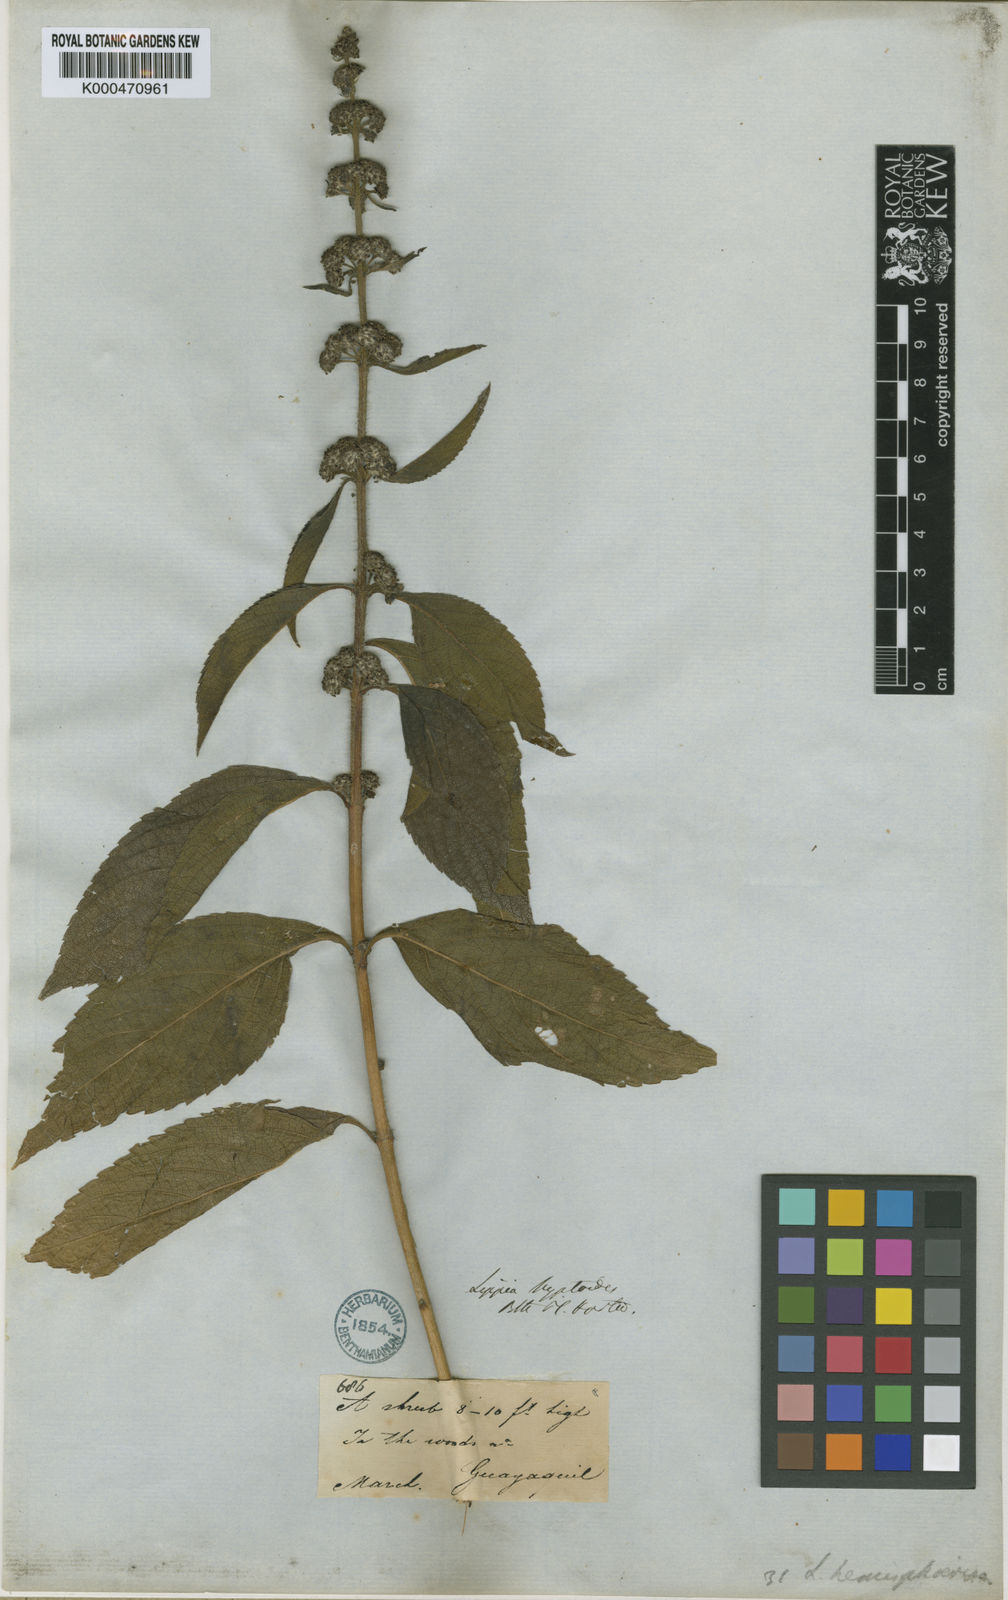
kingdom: Plantae
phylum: Tracheophyta
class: Magnoliopsida
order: Lamiales
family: Verbenaceae
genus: Lippia
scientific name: Lippia americana
